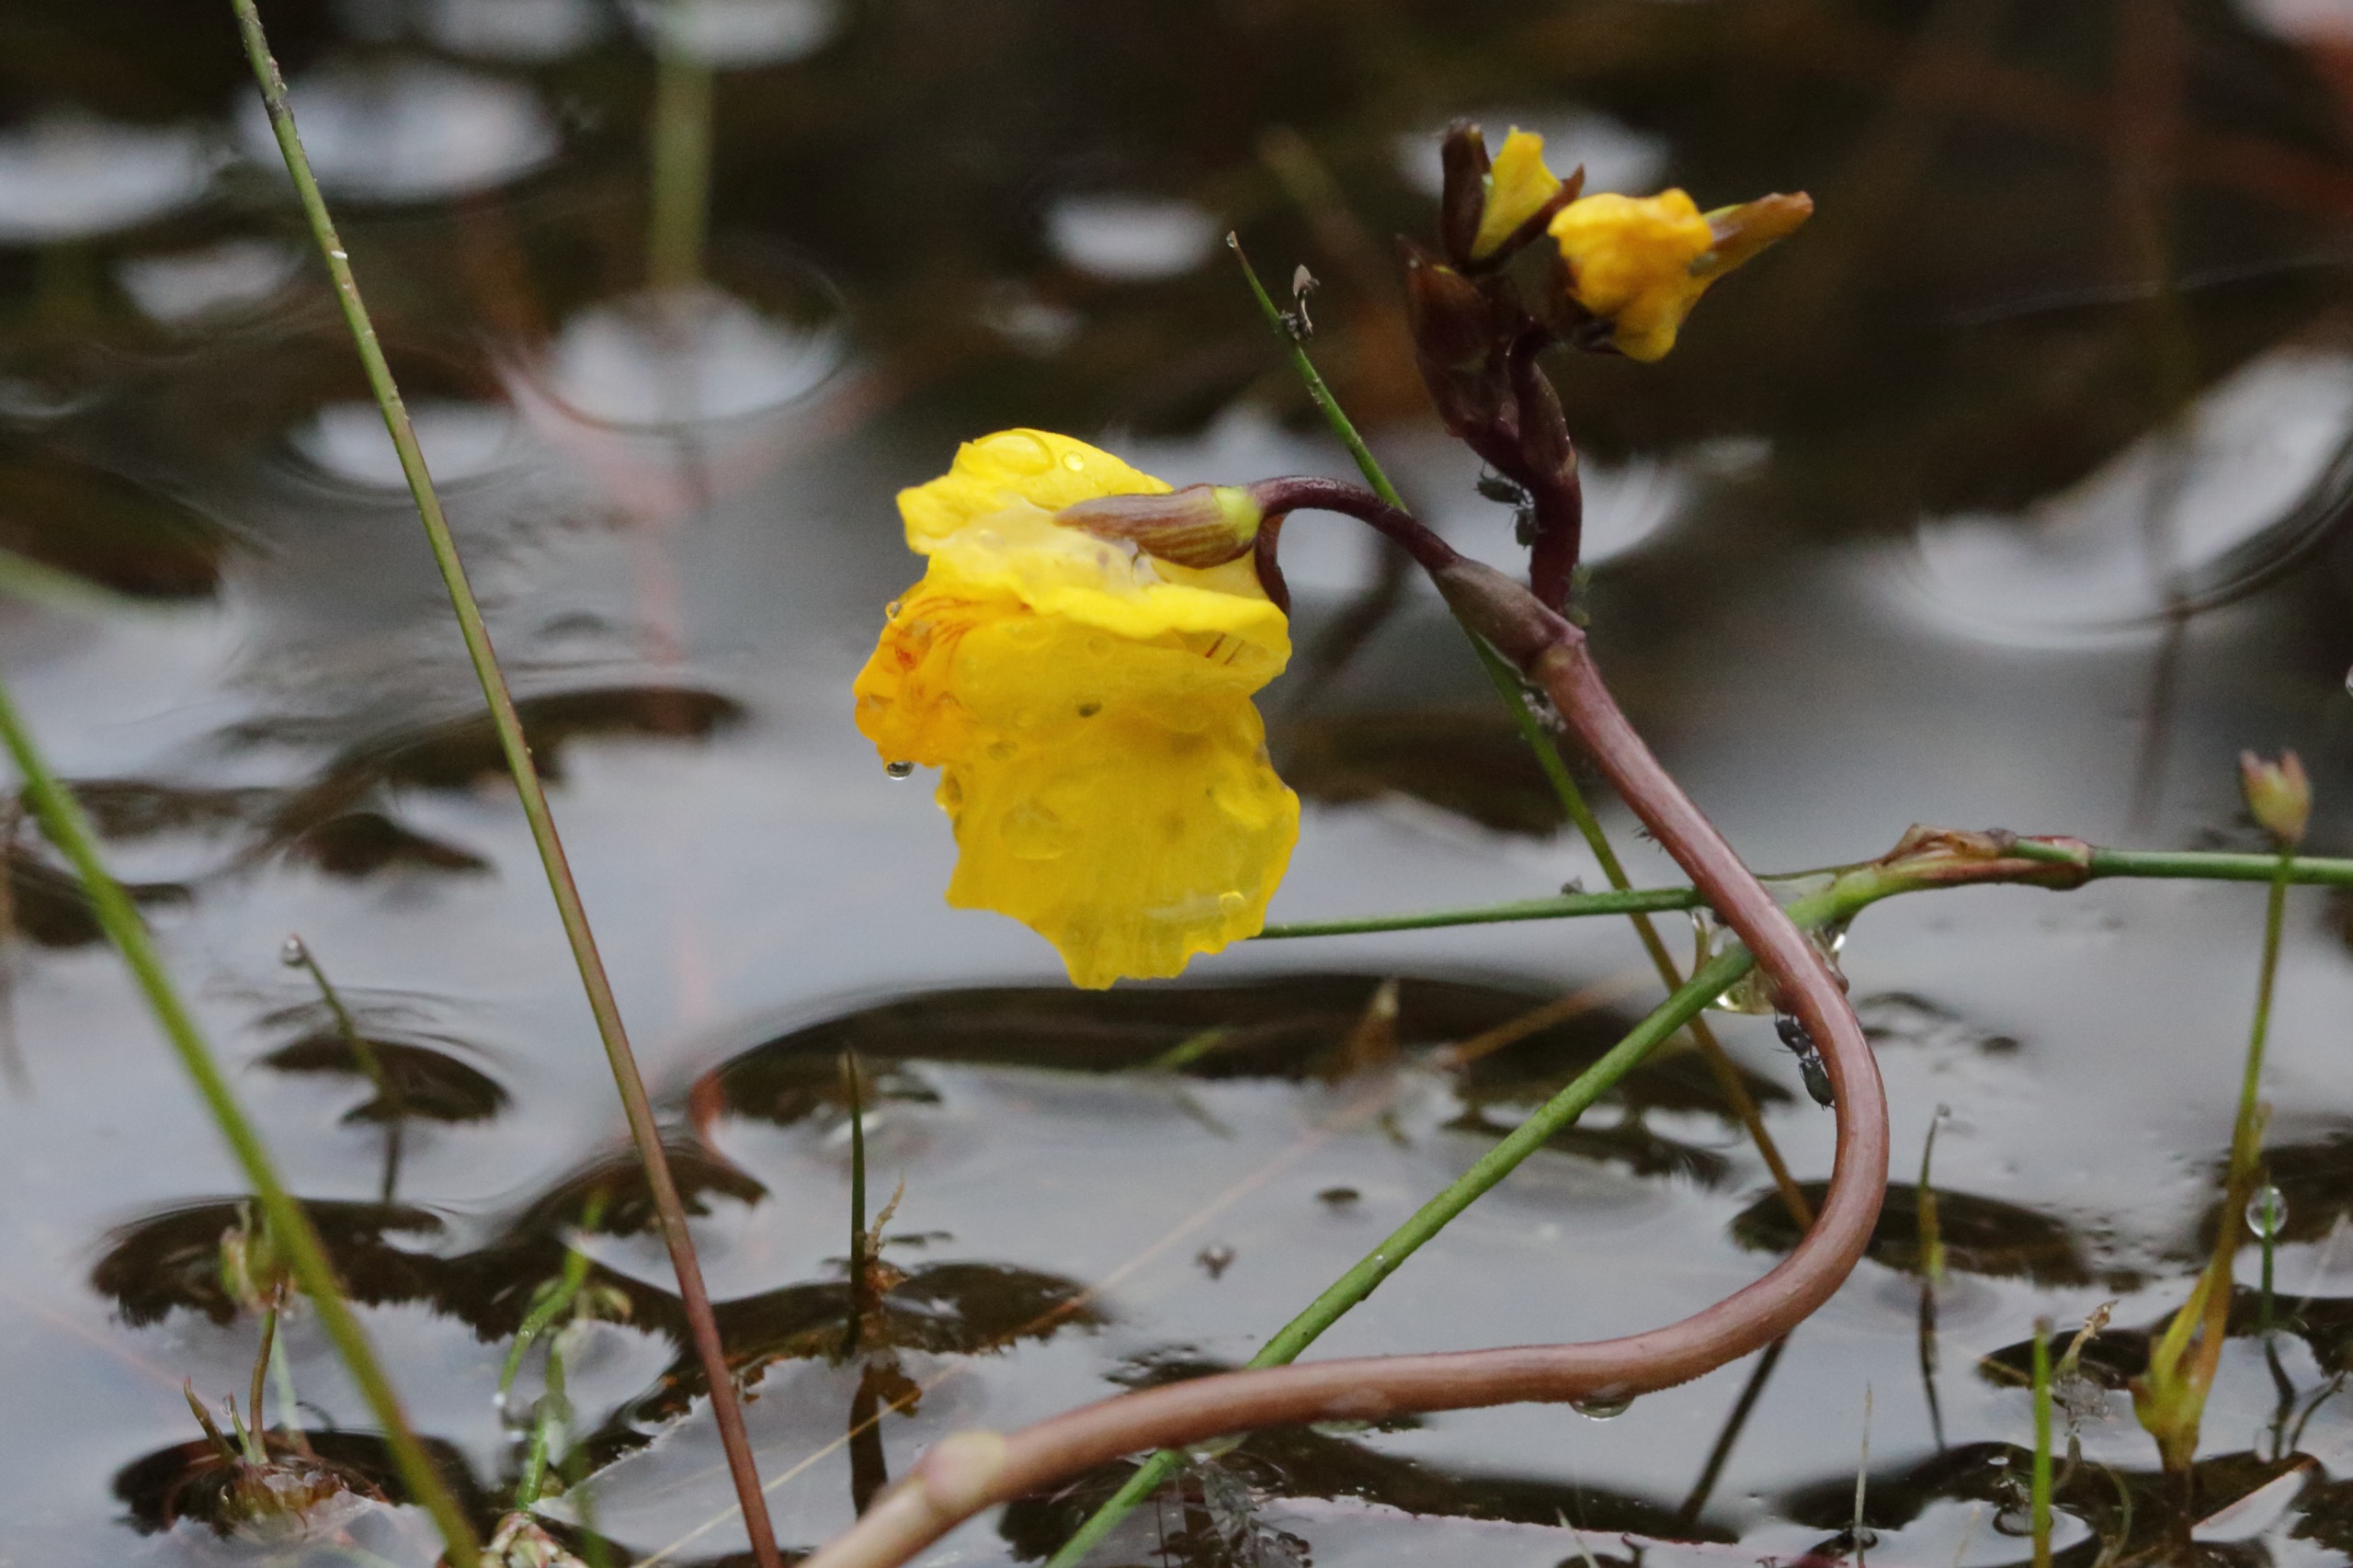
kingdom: Plantae
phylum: Tracheophyta
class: Magnoliopsida
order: Lamiales
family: Lentibulariaceae
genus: Utricularia
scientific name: Utricularia vulgaris
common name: Almindelig blærerod
